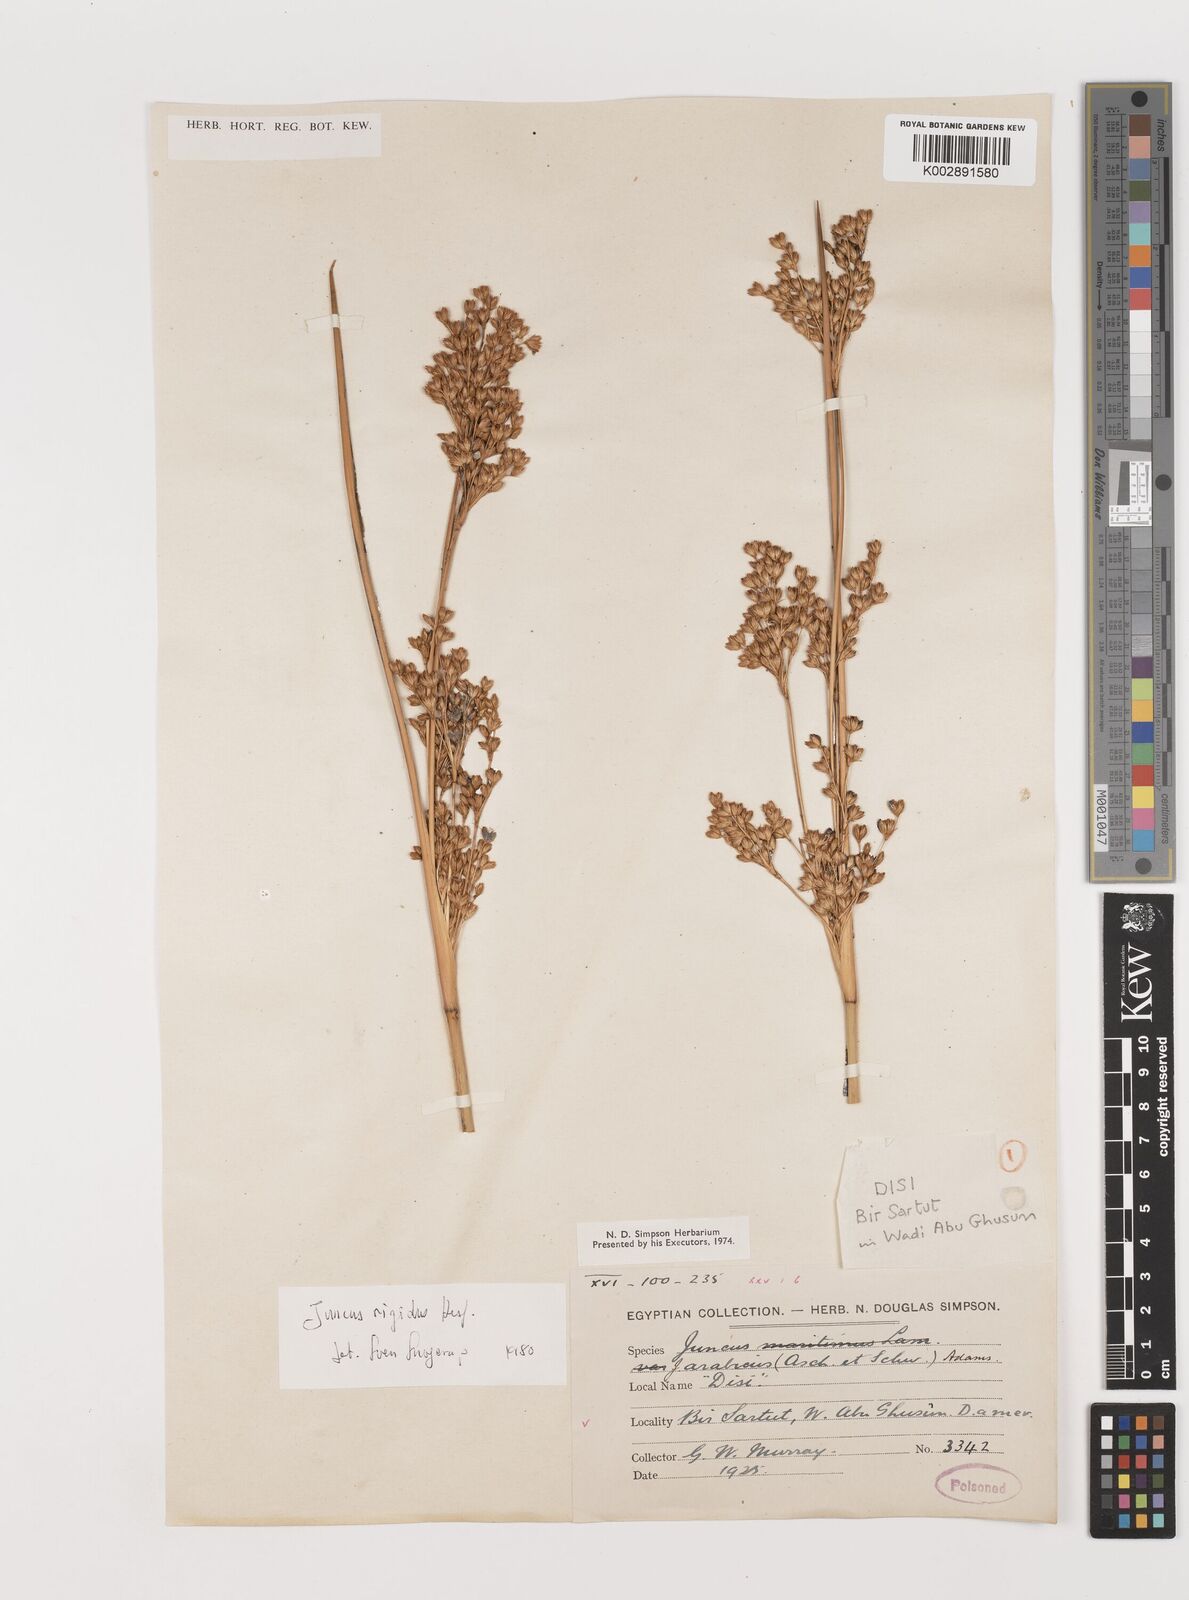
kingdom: Plantae
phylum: Tracheophyta
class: Liliopsida
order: Poales
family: Juncaceae
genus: Juncus
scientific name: Juncus rigidus
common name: Hard sea rush
